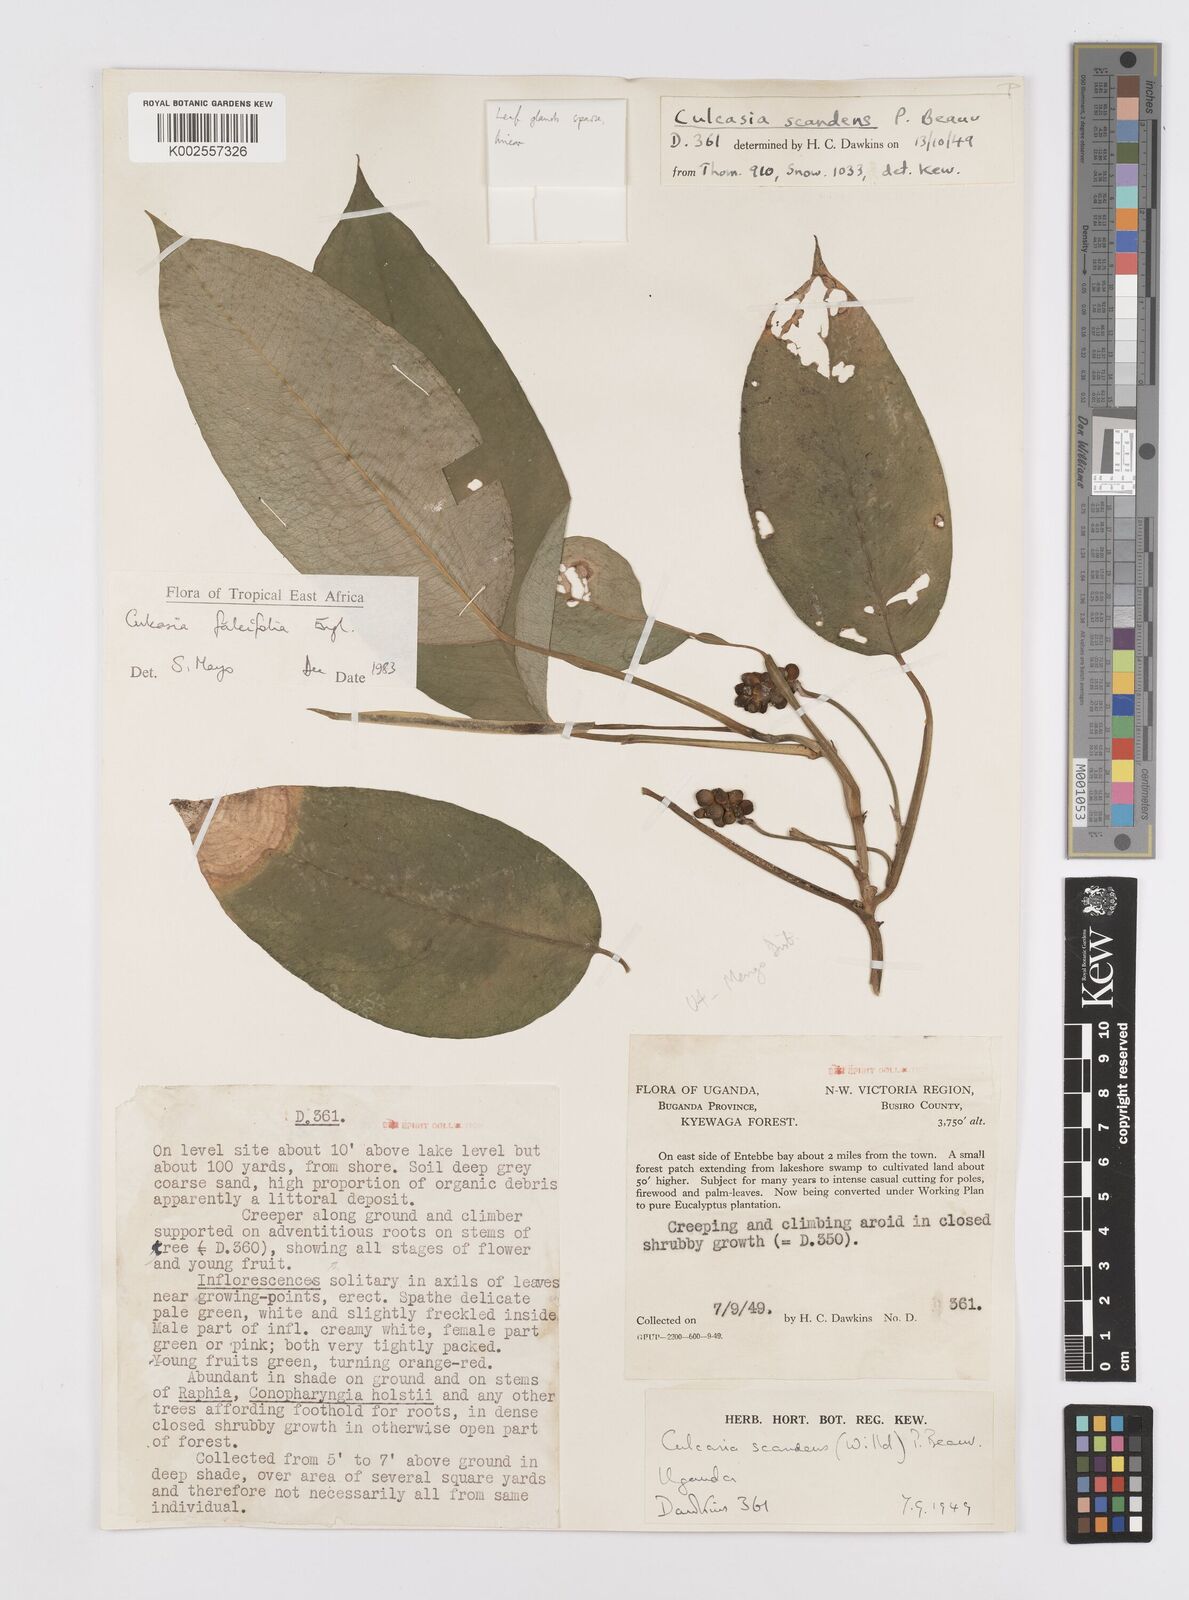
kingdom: Plantae
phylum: Tracheophyta
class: Liliopsida
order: Alismatales
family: Araceae
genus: Culcasia
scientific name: Culcasia falcifolia
